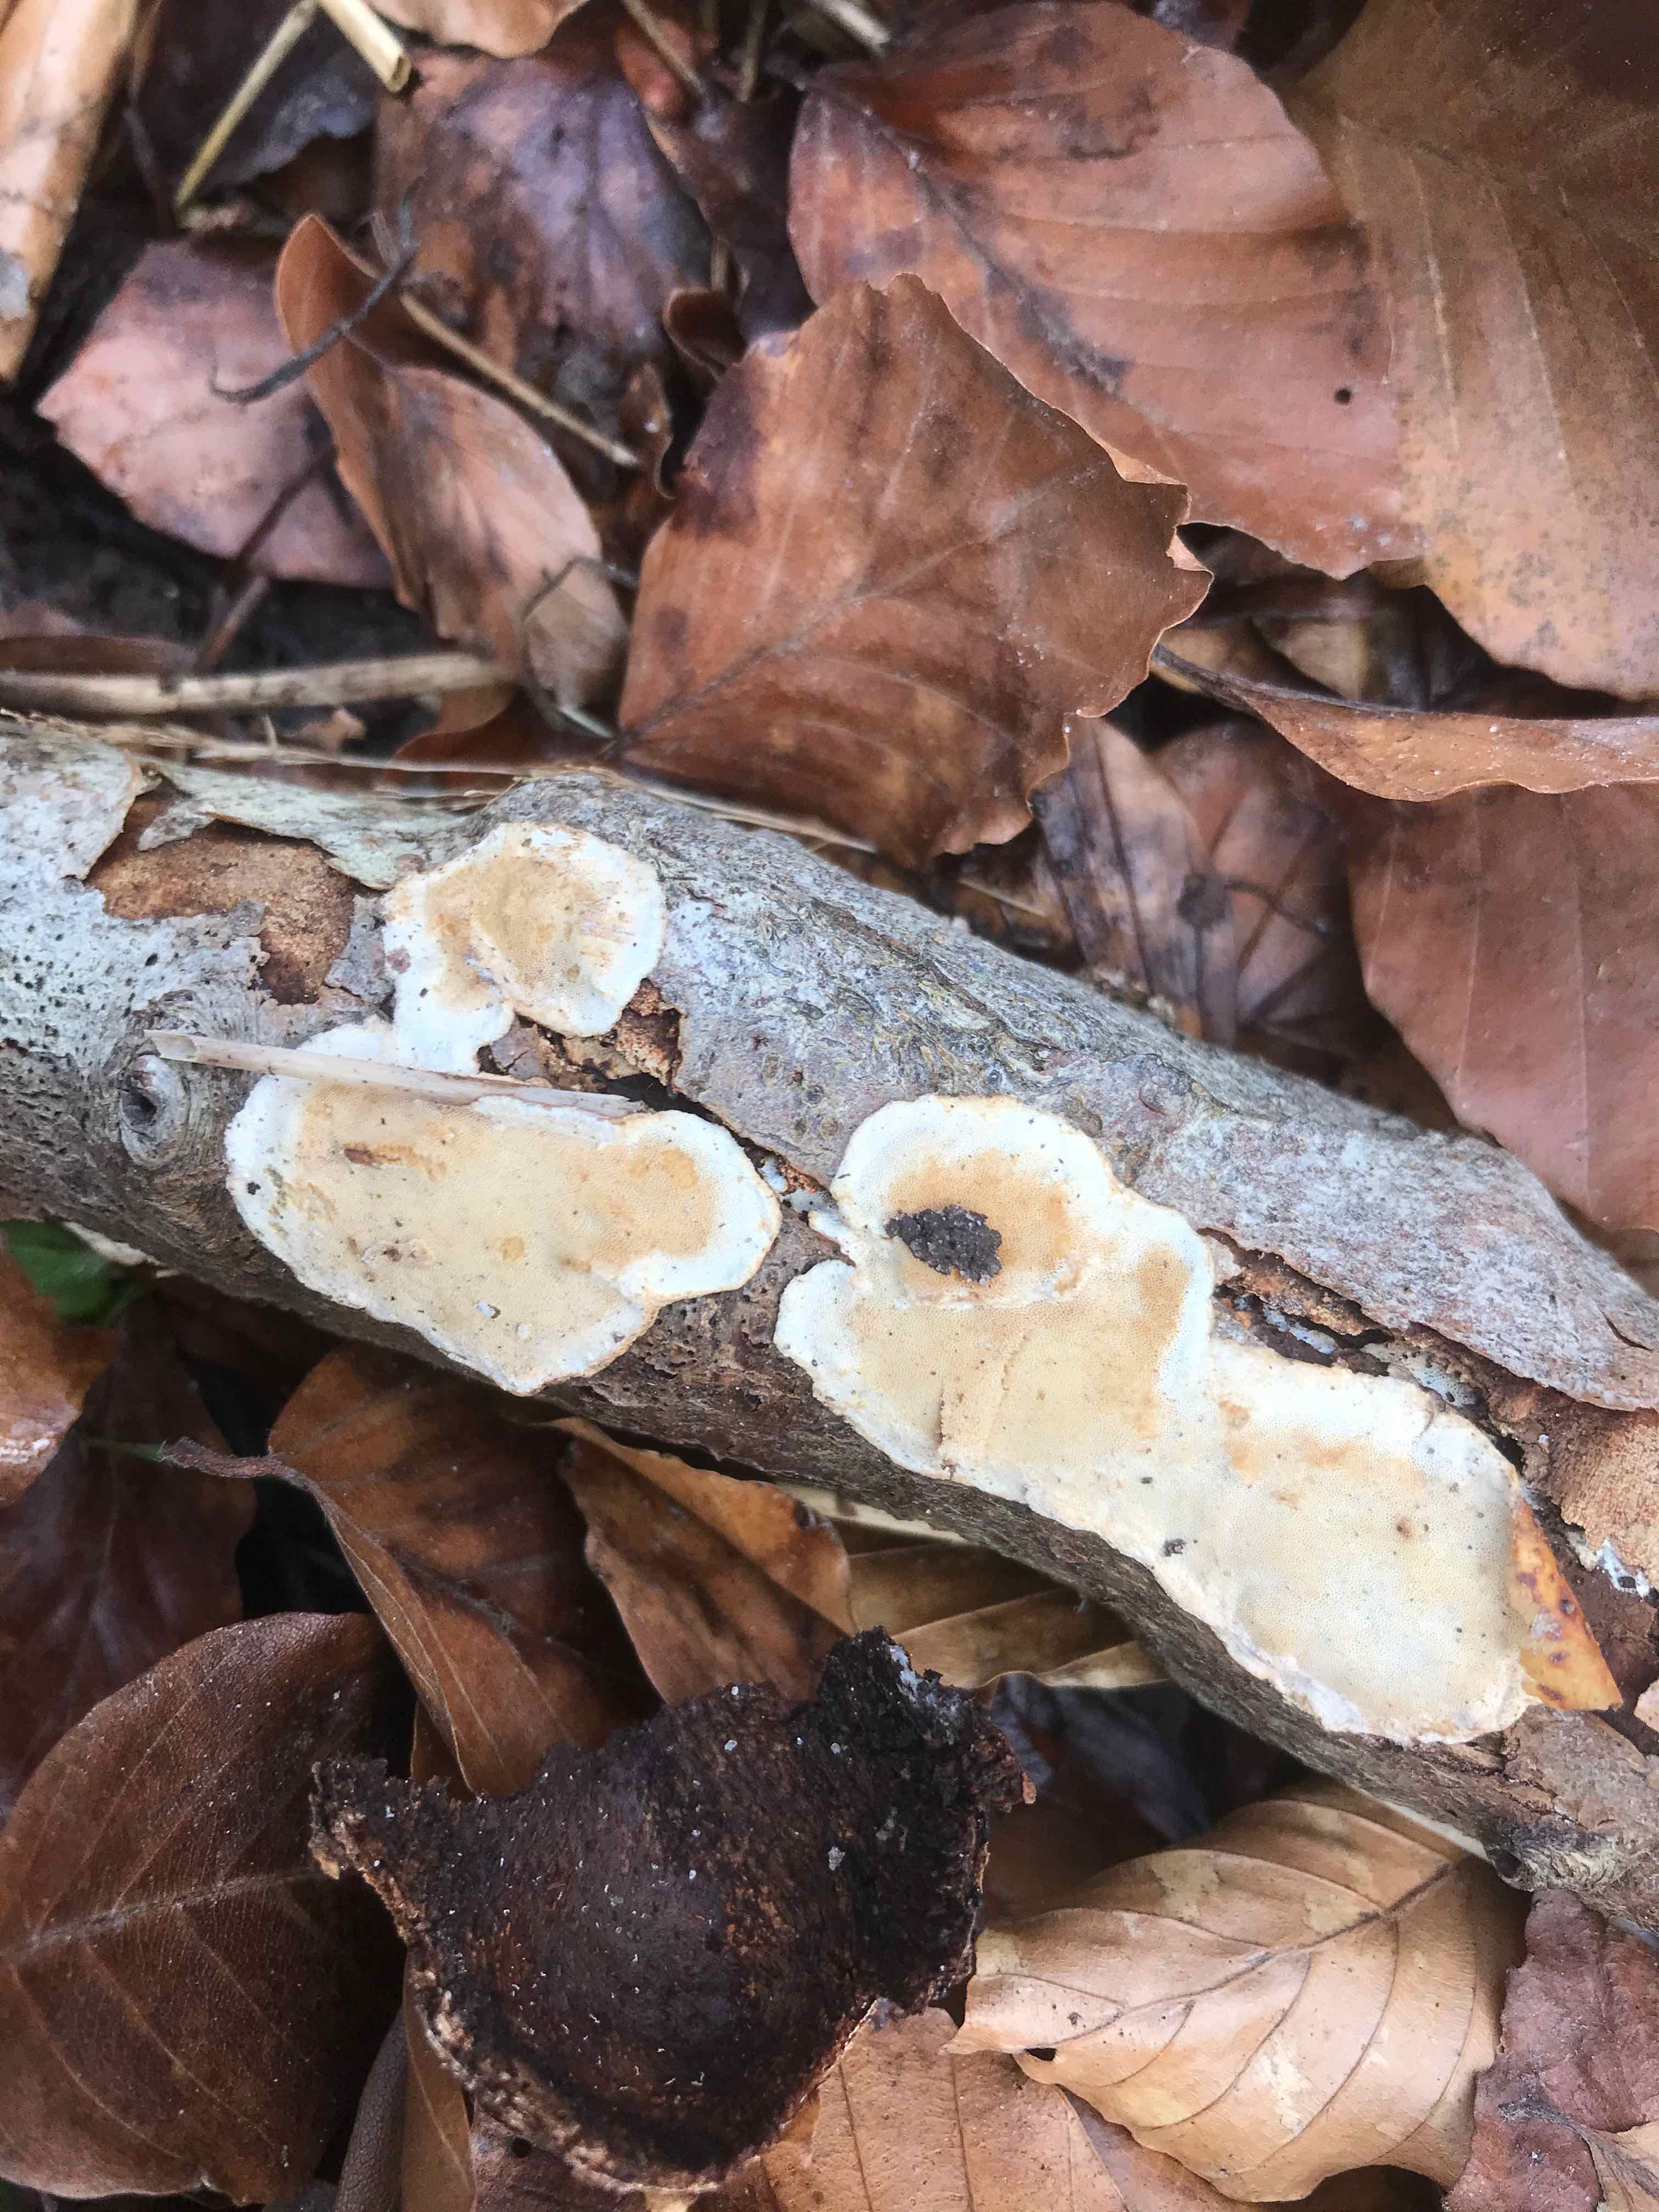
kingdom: Fungi
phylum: Basidiomycota
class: Agaricomycetes
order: Polyporales
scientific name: Polyporales
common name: poresvampordenen
